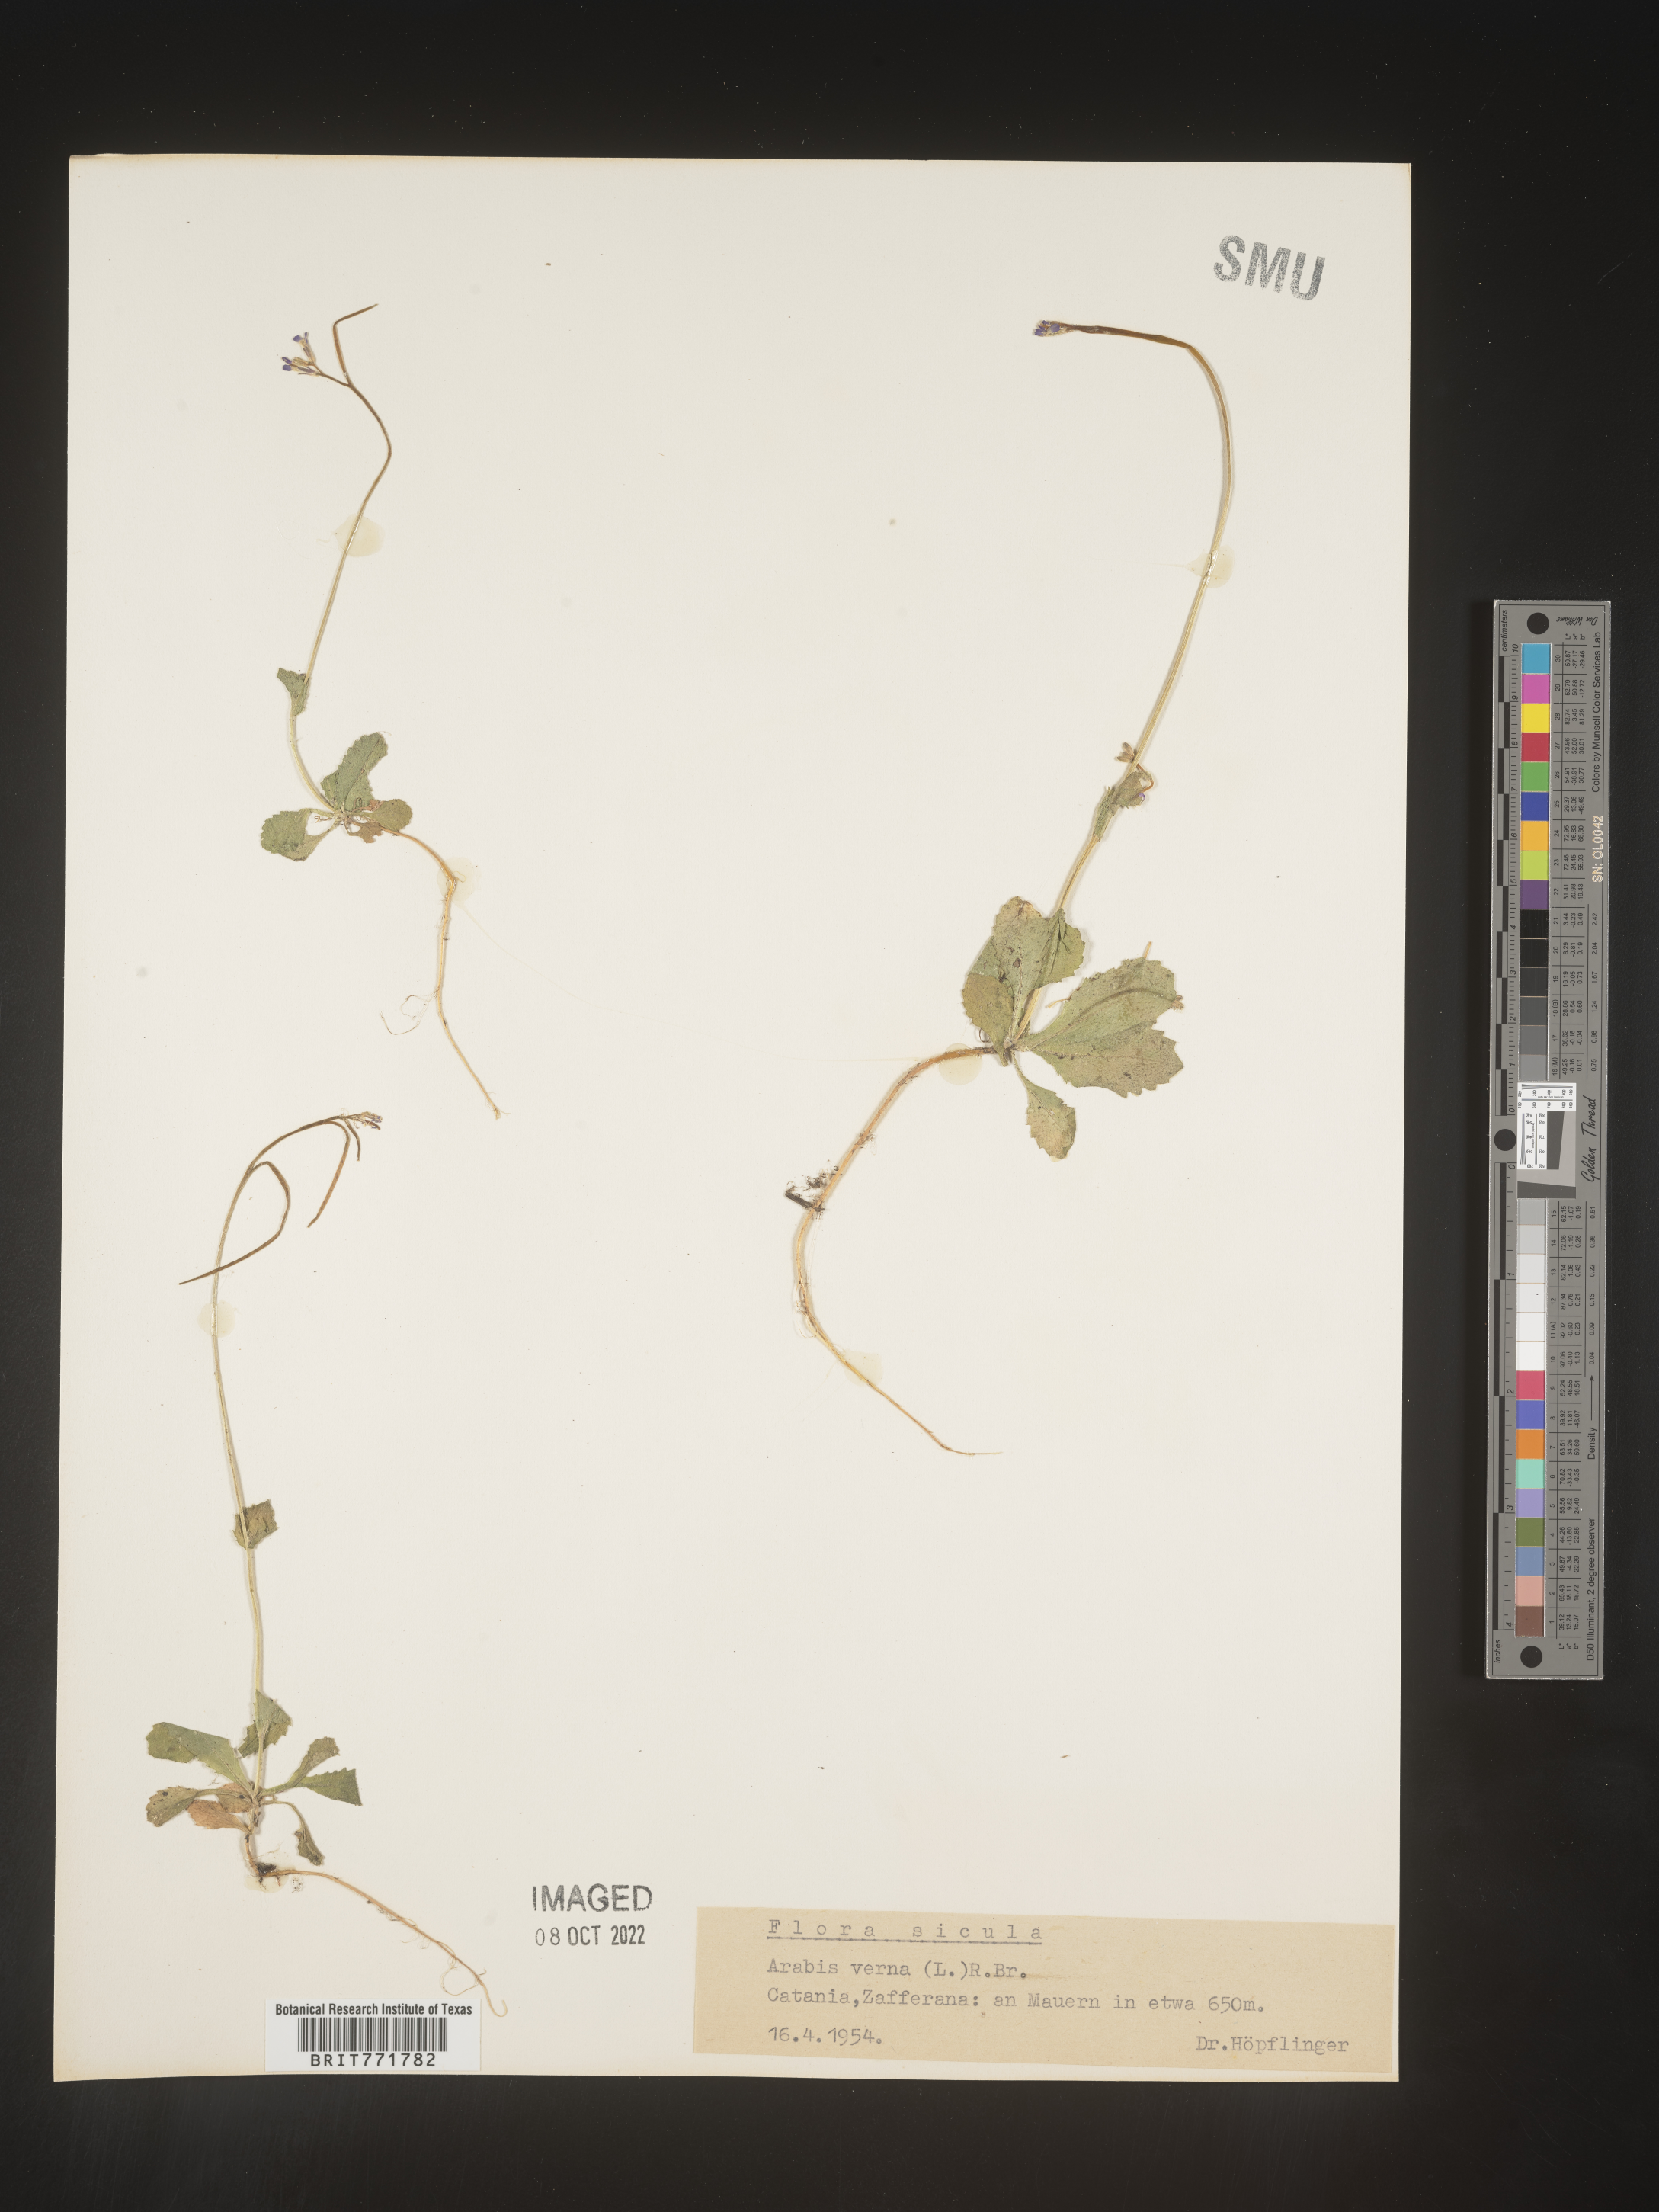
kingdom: Plantae
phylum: Tracheophyta
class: Magnoliopsida
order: Brassicales
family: Brassicaceae
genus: Arabis
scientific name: Arabis
